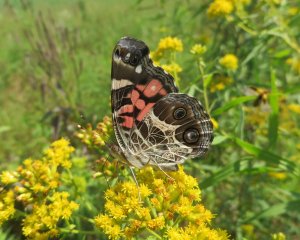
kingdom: Animalia
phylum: Arthropoda
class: Insecta
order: Lepidoptera
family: Nymphalidae
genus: Vanessa
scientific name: Vanessa virginiensis
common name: American Lady
